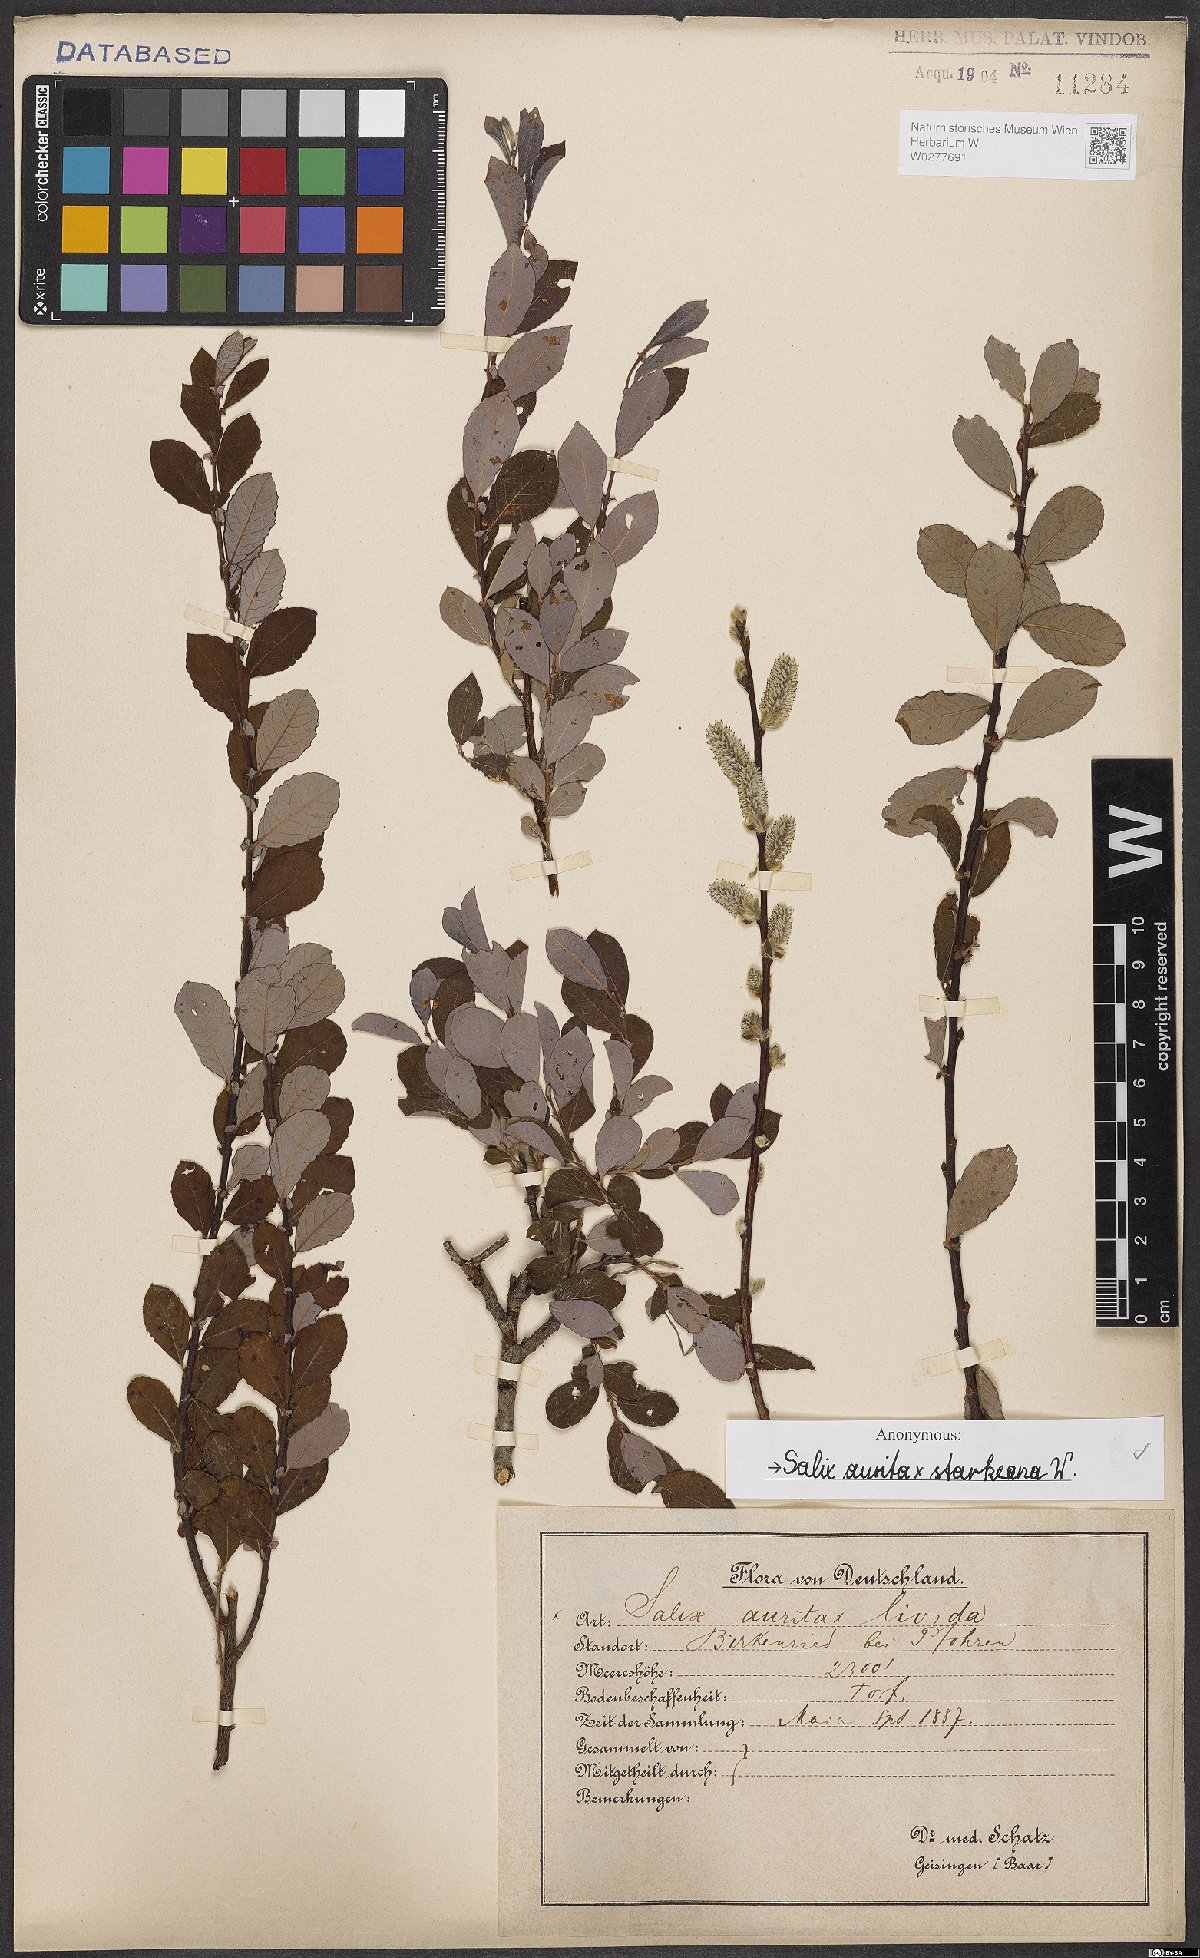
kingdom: Plantae
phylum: Tracheophyta
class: Magnoliopsida
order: Malpighiales
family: Salicaceae
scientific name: Salicaceae
